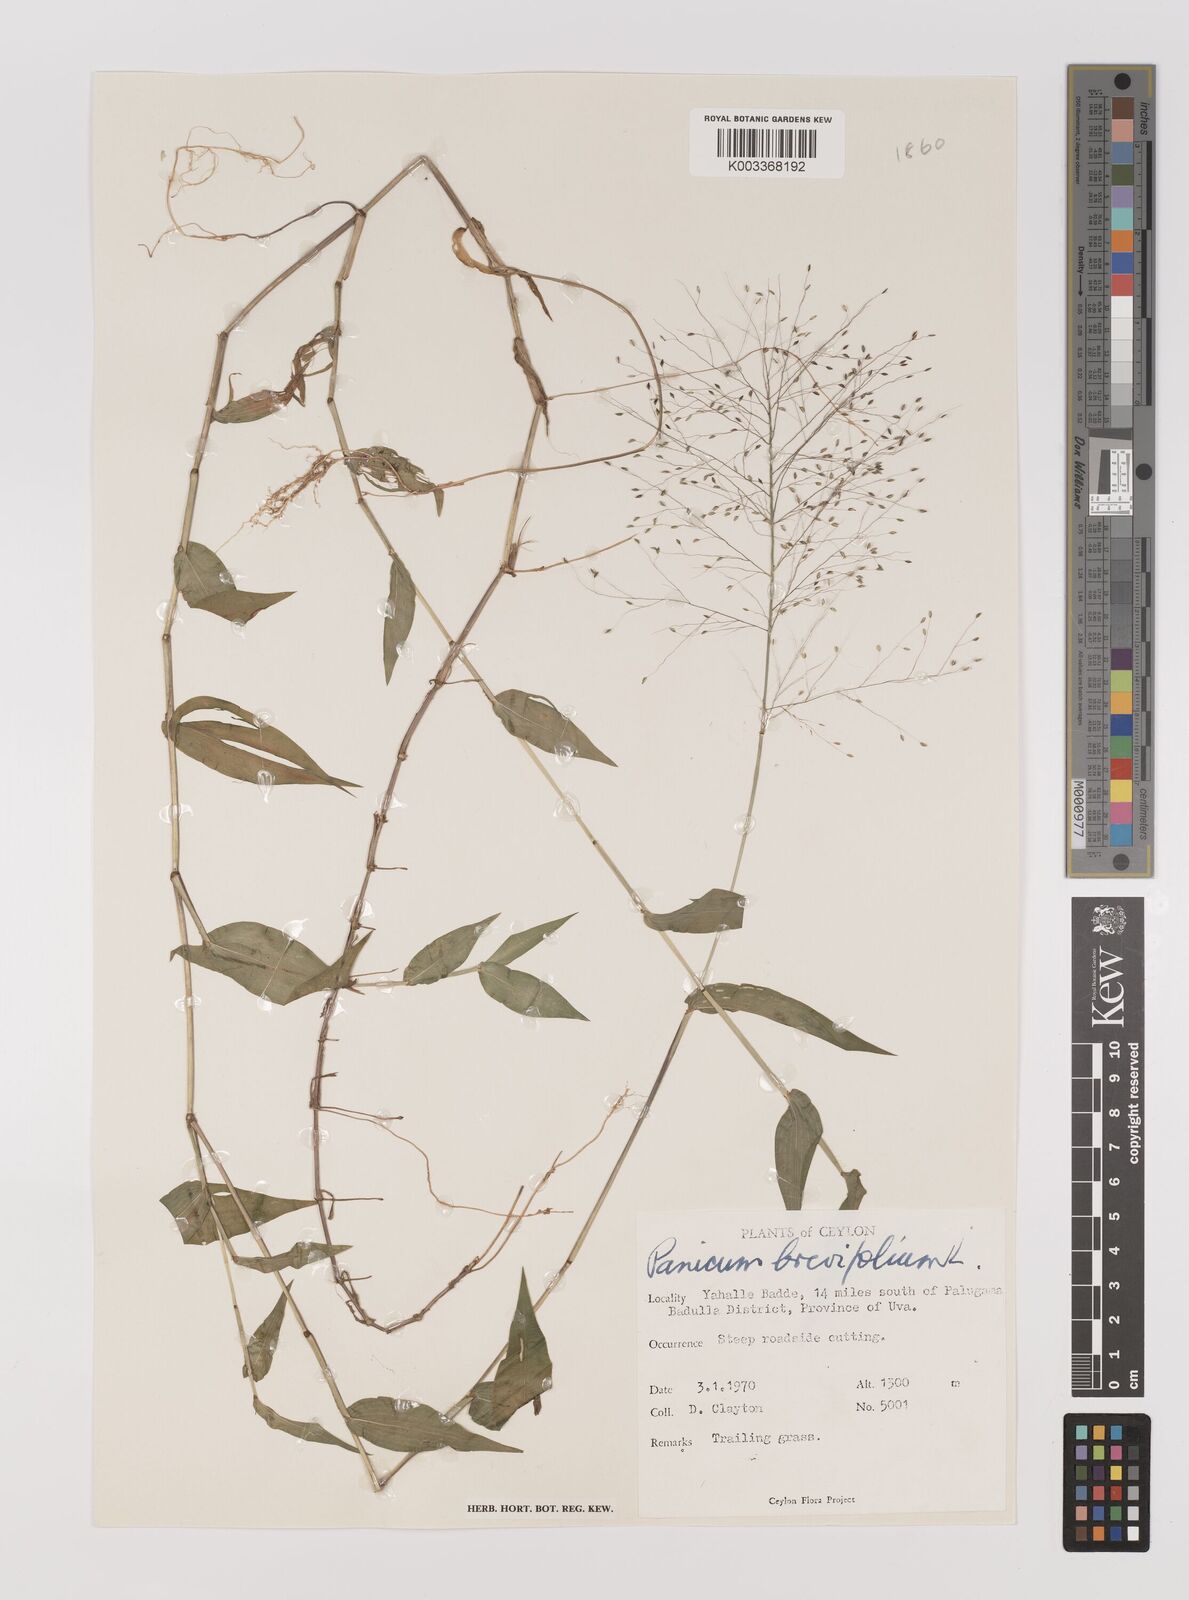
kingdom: Plantae
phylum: Tracheophyta
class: Liliopsida
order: Poales
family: Poaceae
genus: Panicum
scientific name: Panicum brevifolium
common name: Shortleaf panic grass
